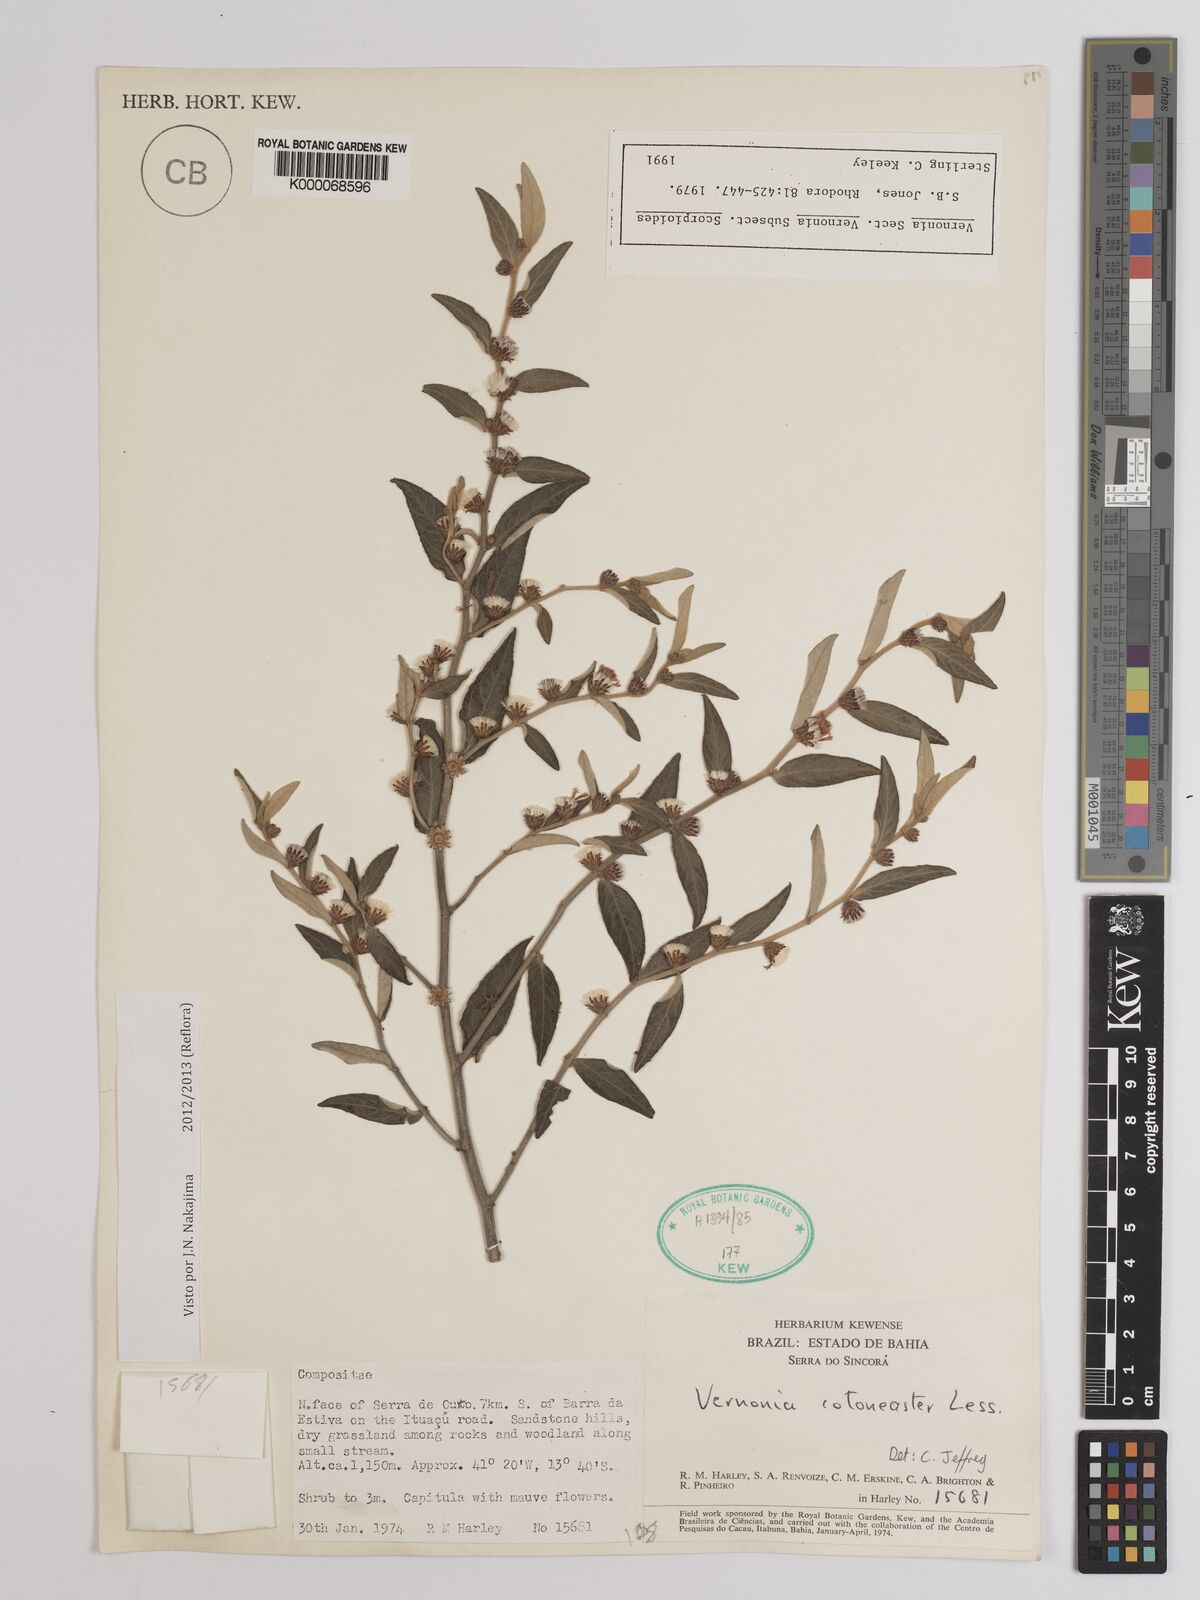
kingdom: Plantae
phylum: Tracheophyta
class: Magnoliopsida
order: Asterales
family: Asteraceae
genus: Lepidaploa
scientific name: Lepidaploa cotoneaster
